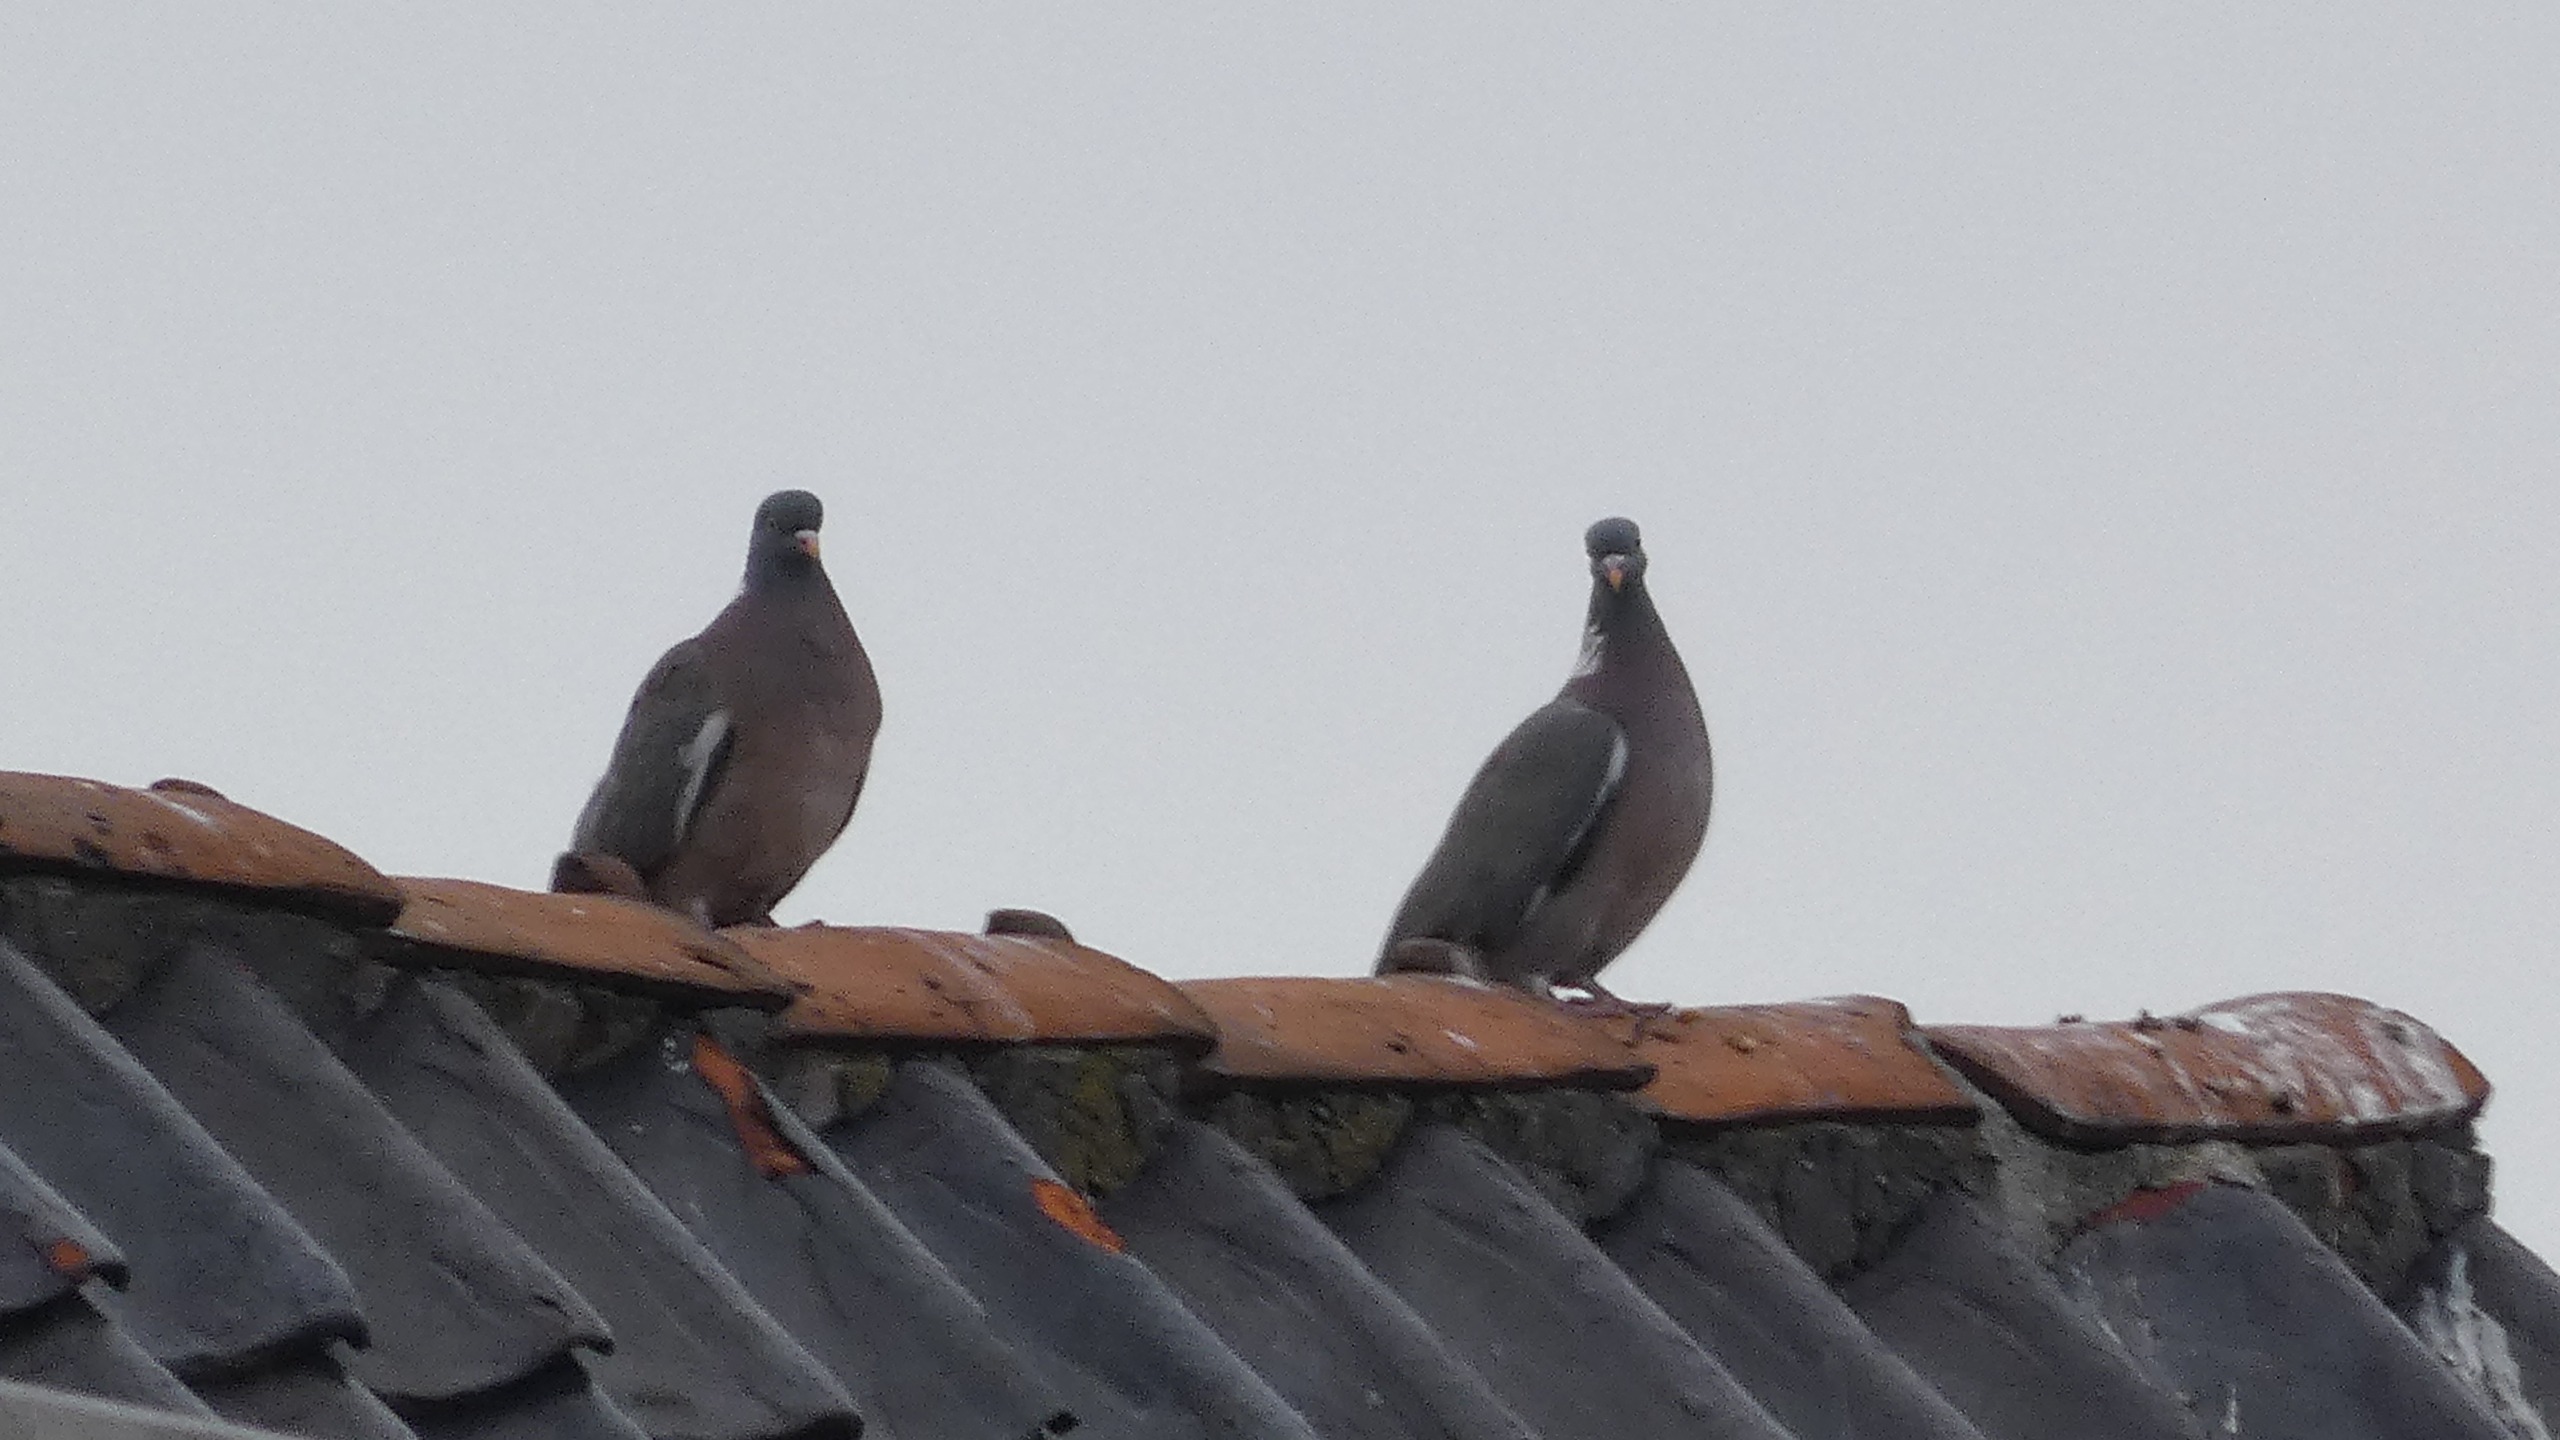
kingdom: Animalia
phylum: Chordata
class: Aves
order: Columbiformes
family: Columbidae
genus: Columba
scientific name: Columba palumbus
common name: Ringdue
